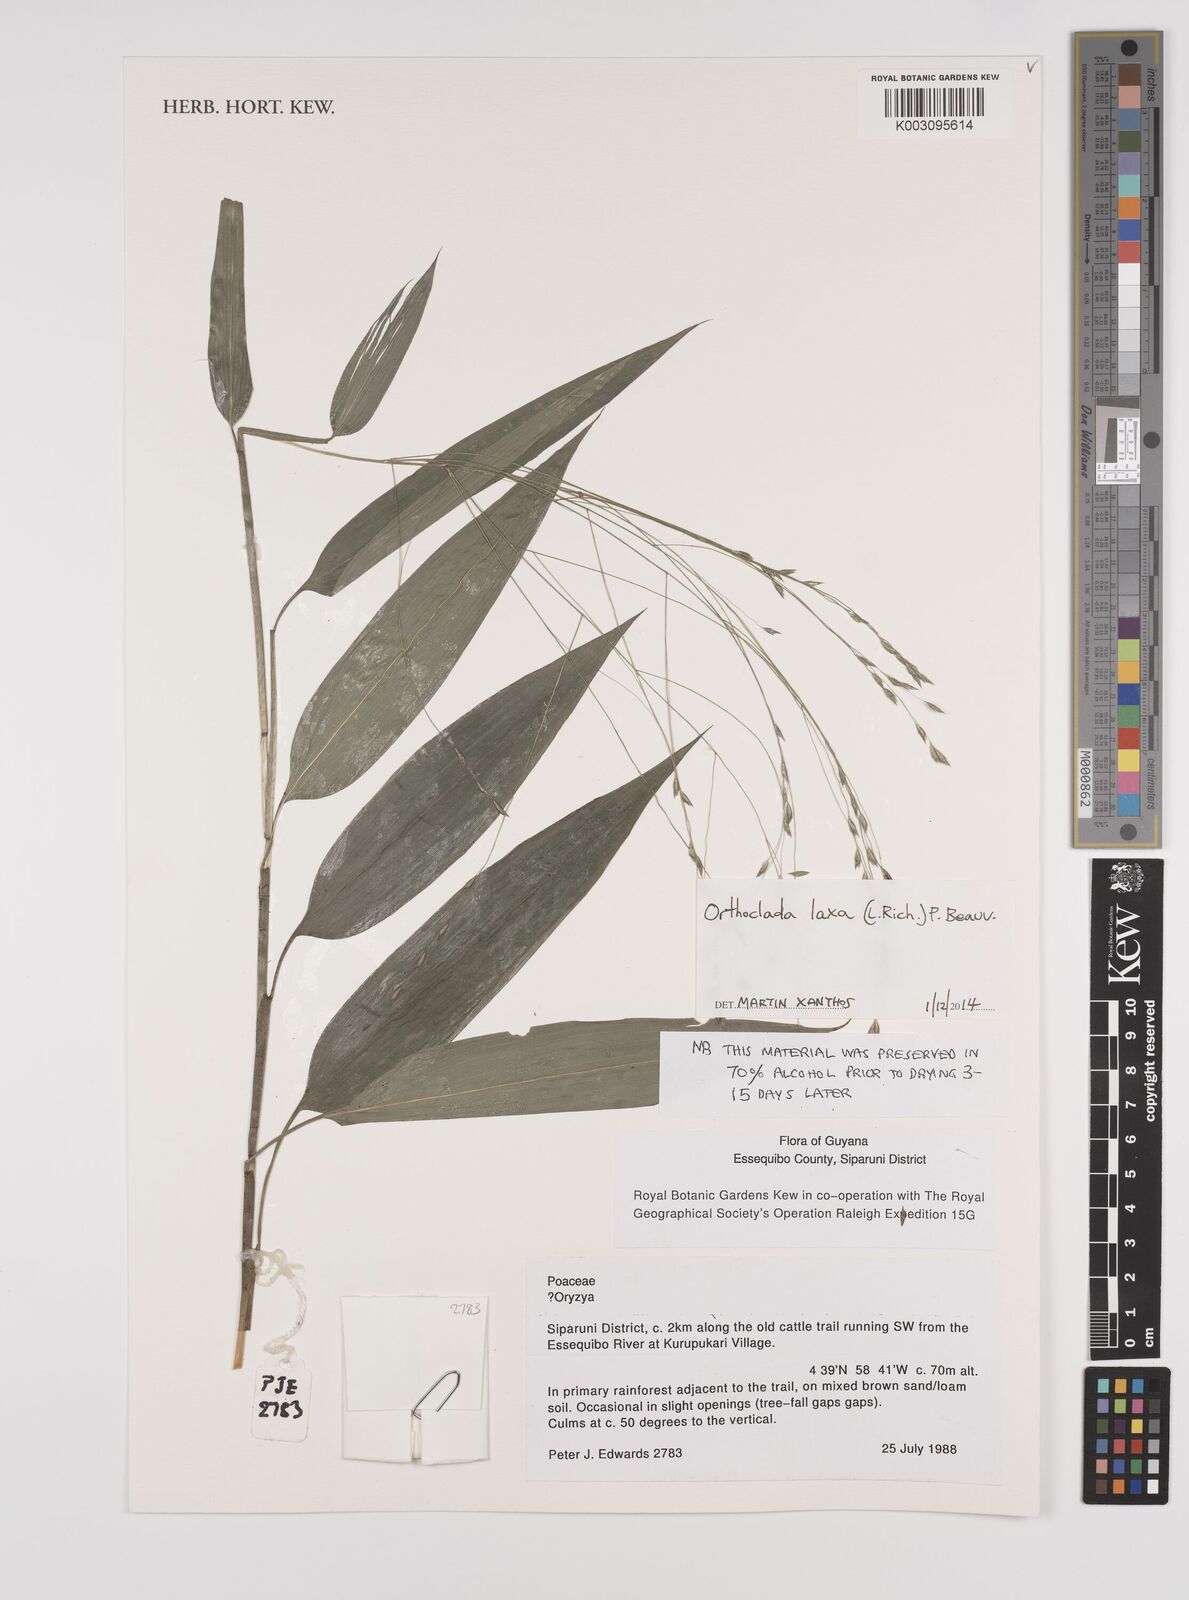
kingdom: Plantae
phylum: Tracheophyta
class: Liliopsida
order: Poales
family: Poaceae
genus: Orthoclada
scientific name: Orthoclada laxa
